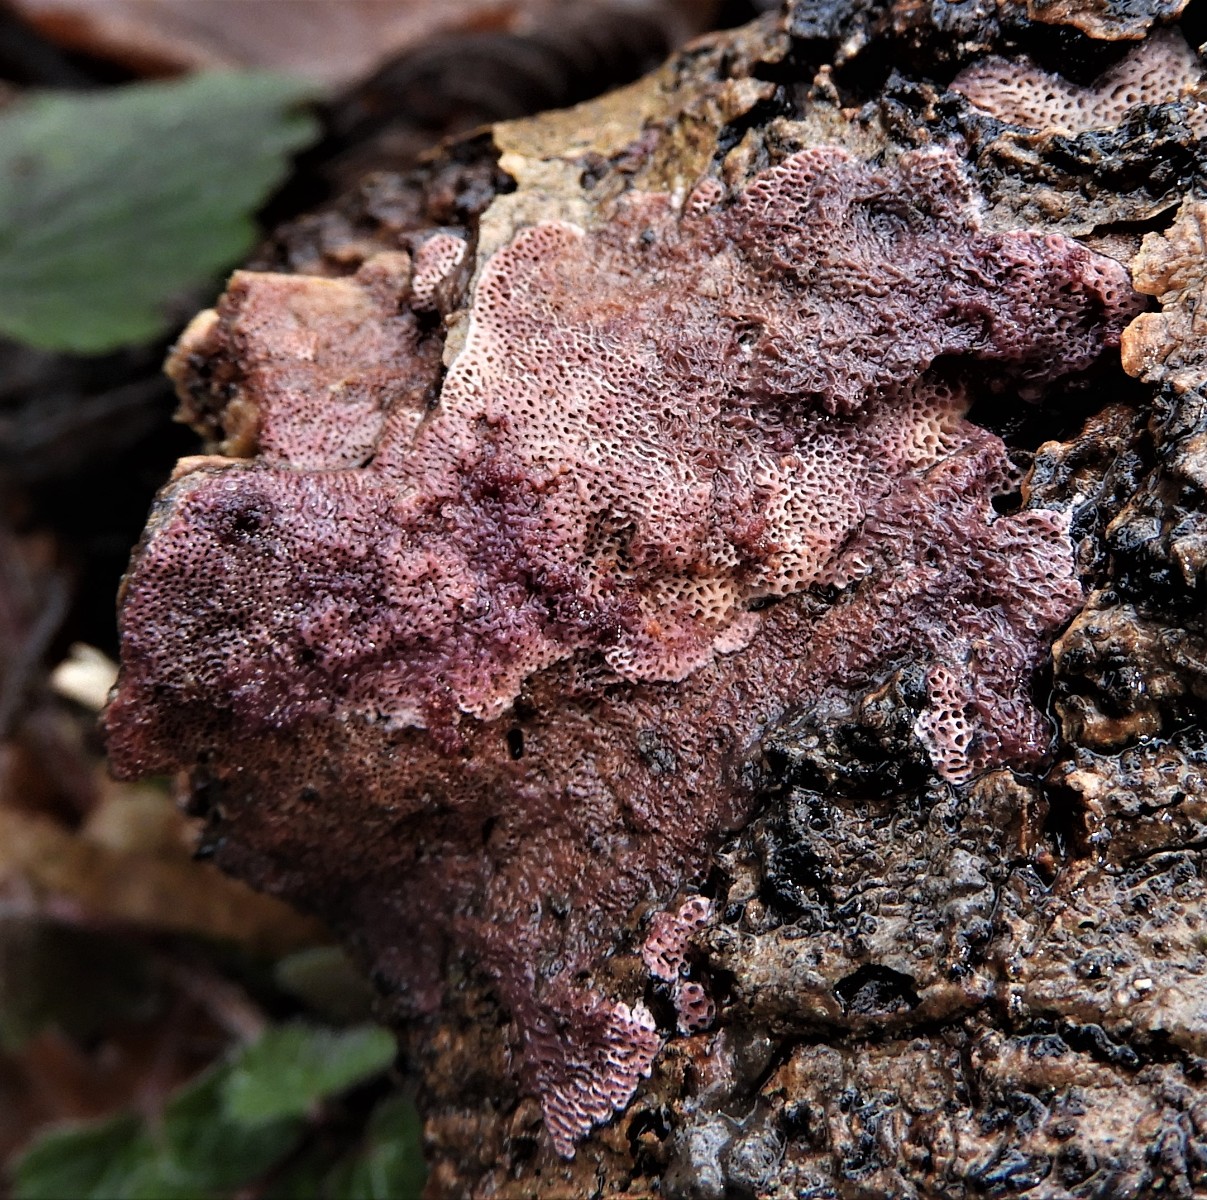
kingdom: Fungi
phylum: Basidiomycota
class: Agaricomycetes
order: Polyporales
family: Irpicaceae
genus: Ceriporia
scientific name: Ceriporia
